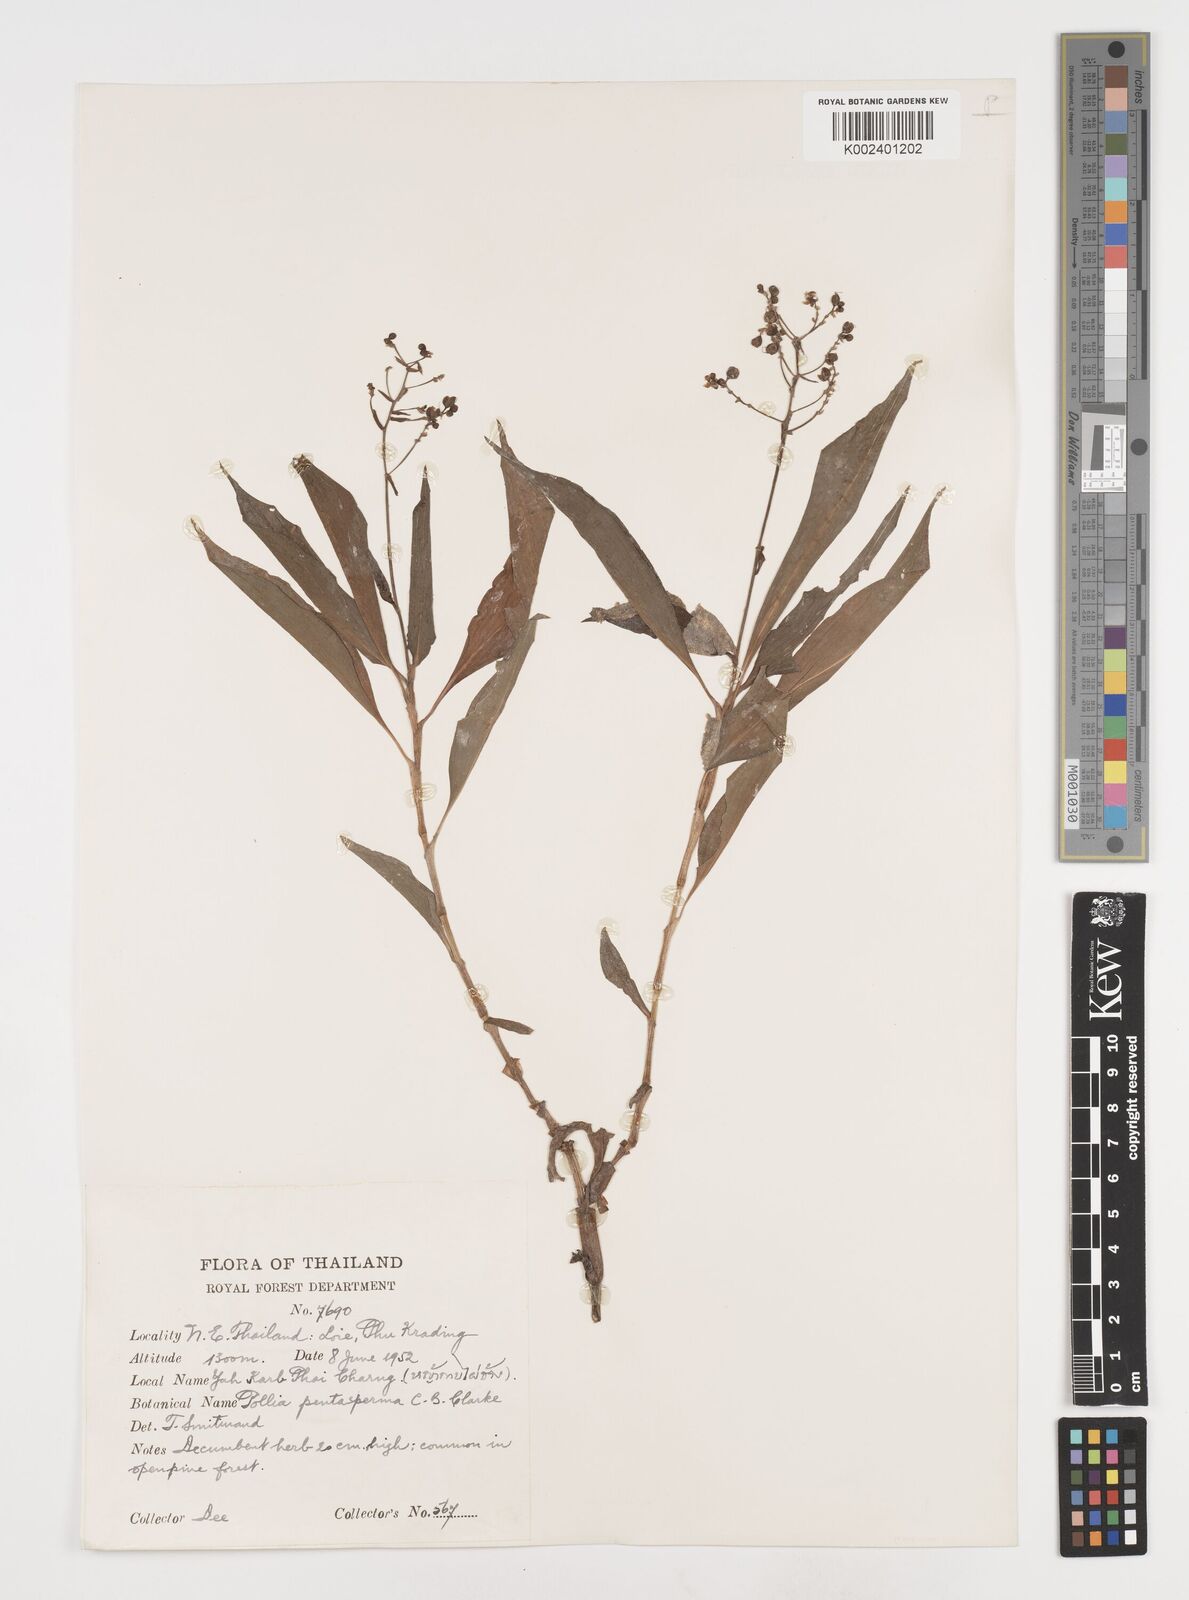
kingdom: Plantae
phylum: Tracheophyta
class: Liliopsida
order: Commelinales
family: Commelinaceae
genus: Pollia
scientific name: Pollia secundiflora
